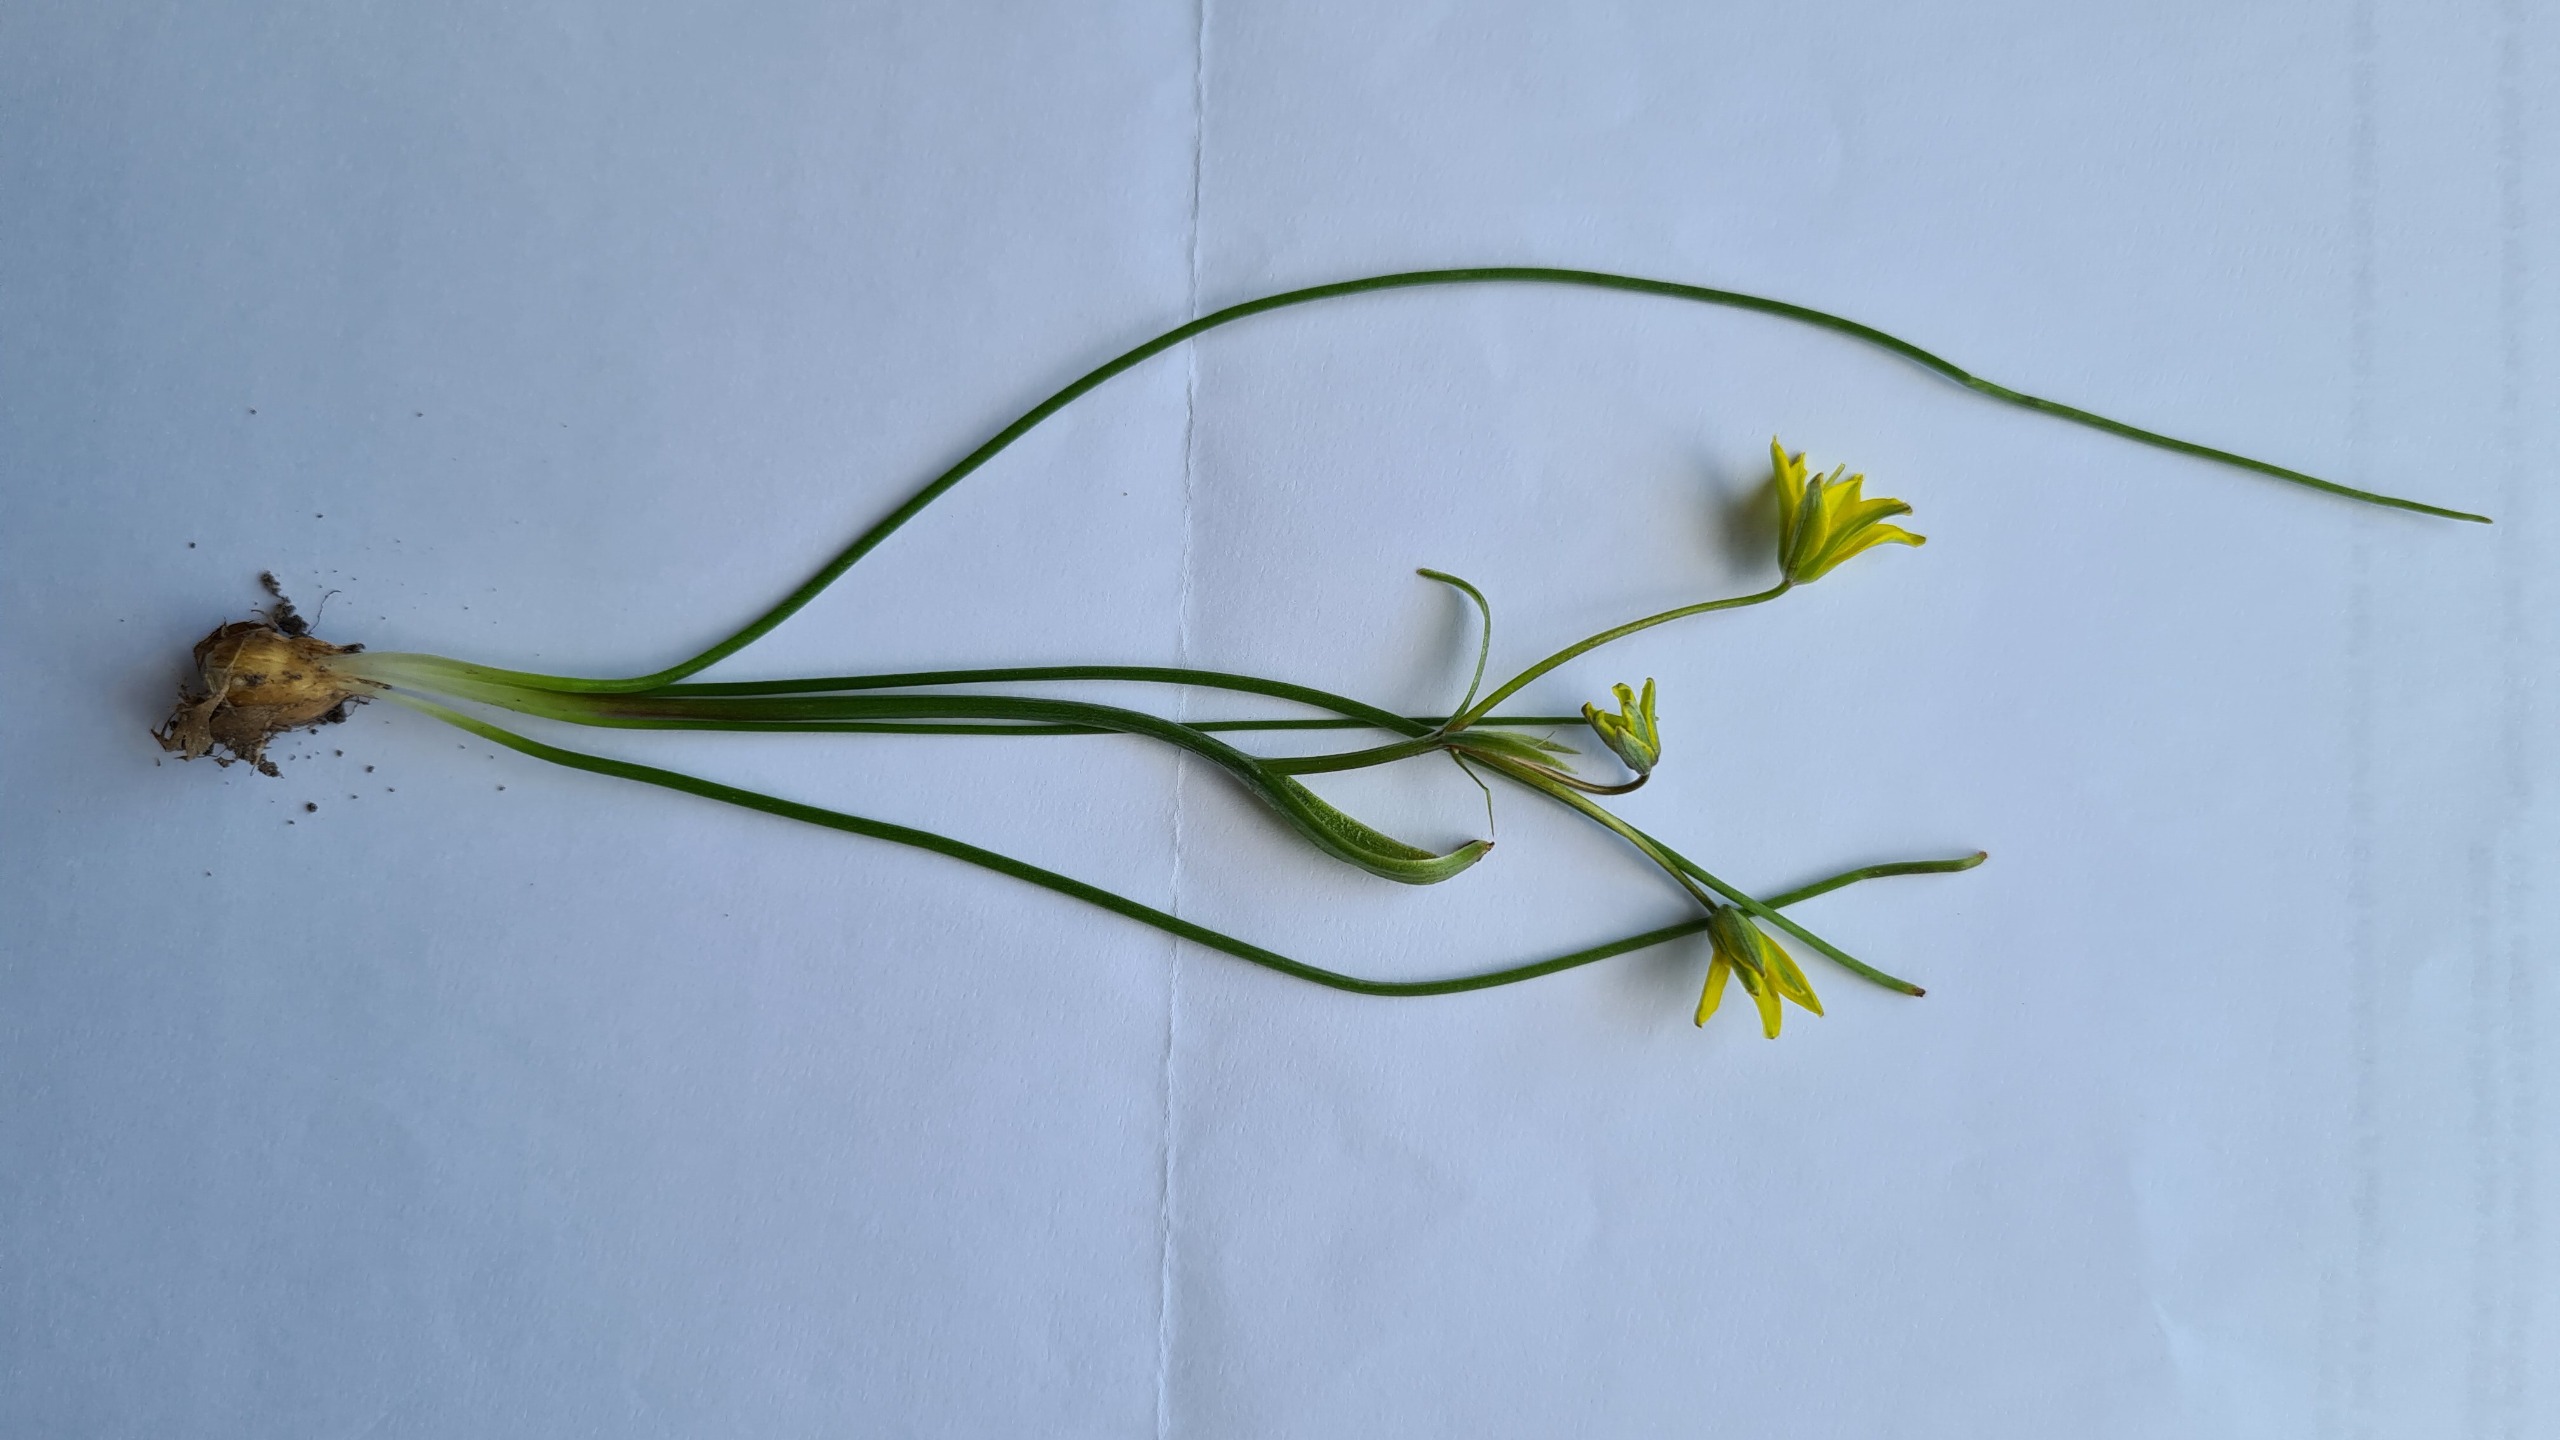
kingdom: Plantae
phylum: Tracheophyta
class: Liliopsida
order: Liliales
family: Liliaceae
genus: Gagea
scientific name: Gagea spathacea
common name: Hylster-guldstjerne
